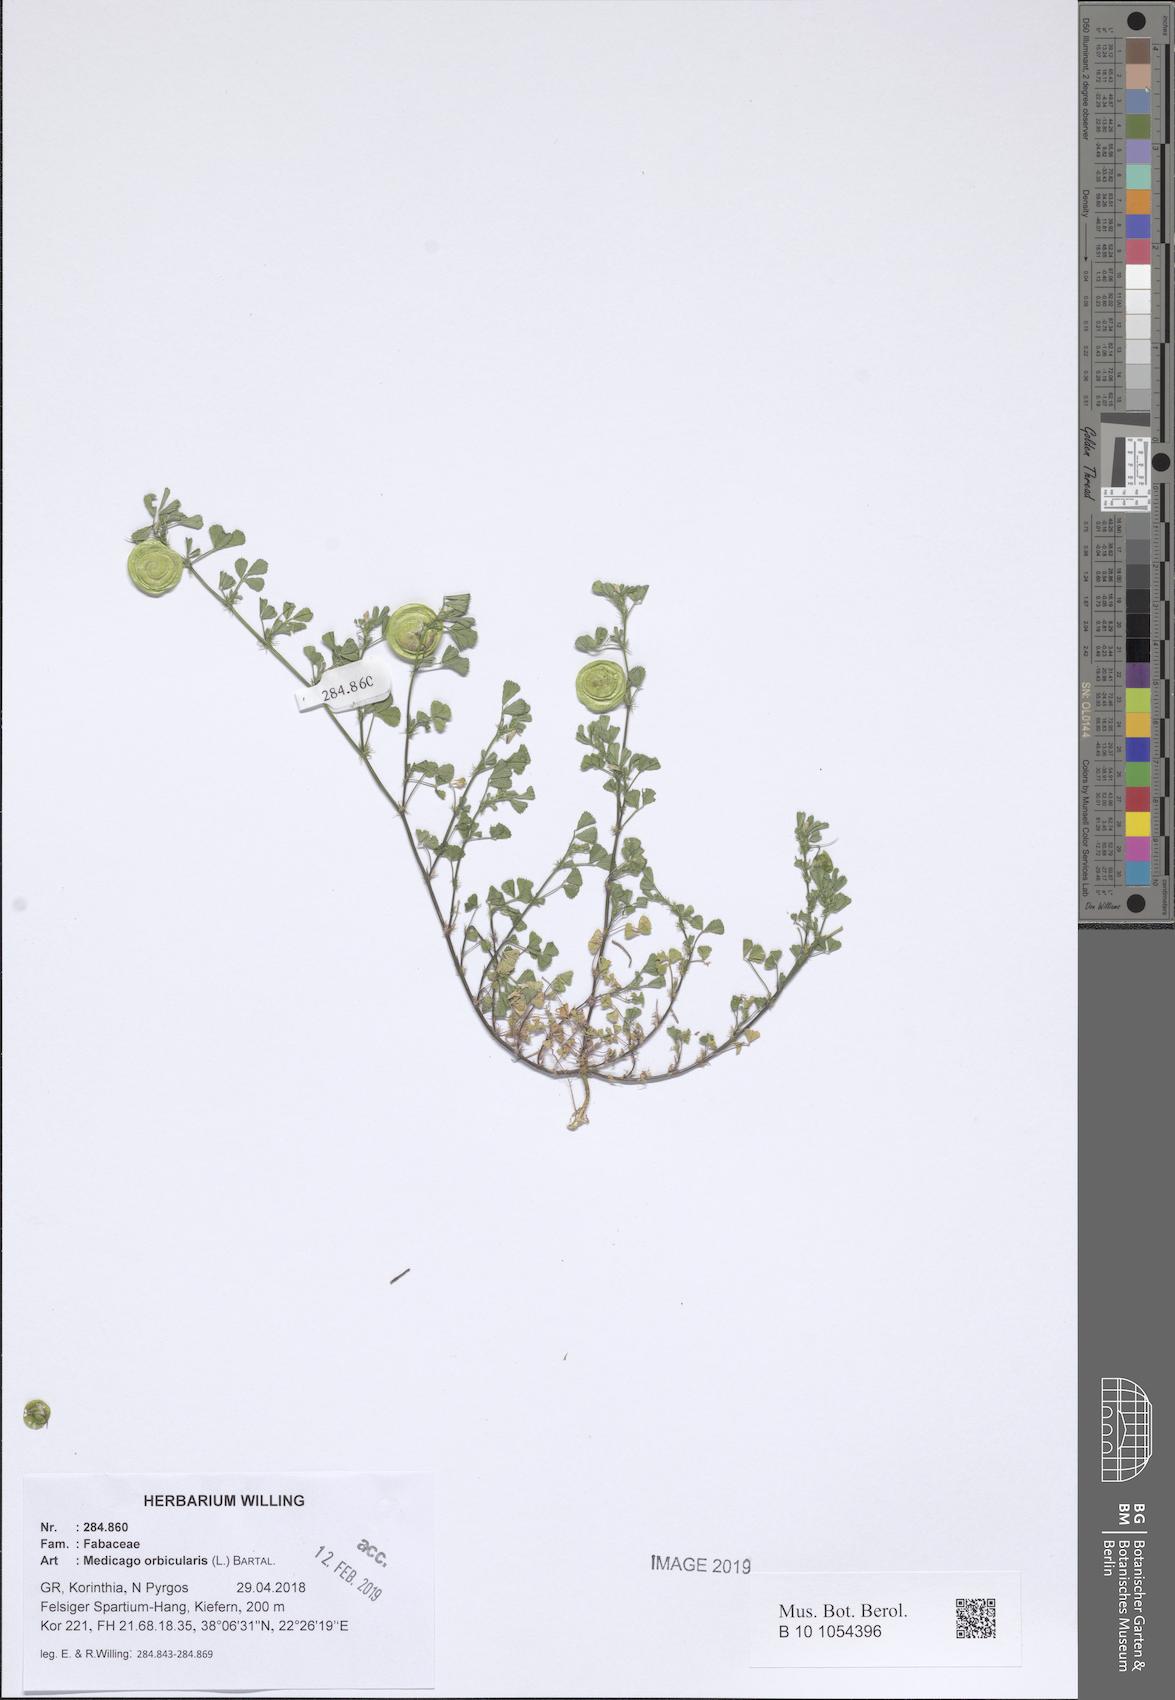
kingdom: Plantae
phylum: Tracheophyta
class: Magnoliopsida
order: Fabales
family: Fabaceae
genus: Medicago
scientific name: Medicago orbicularis
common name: Button medick
